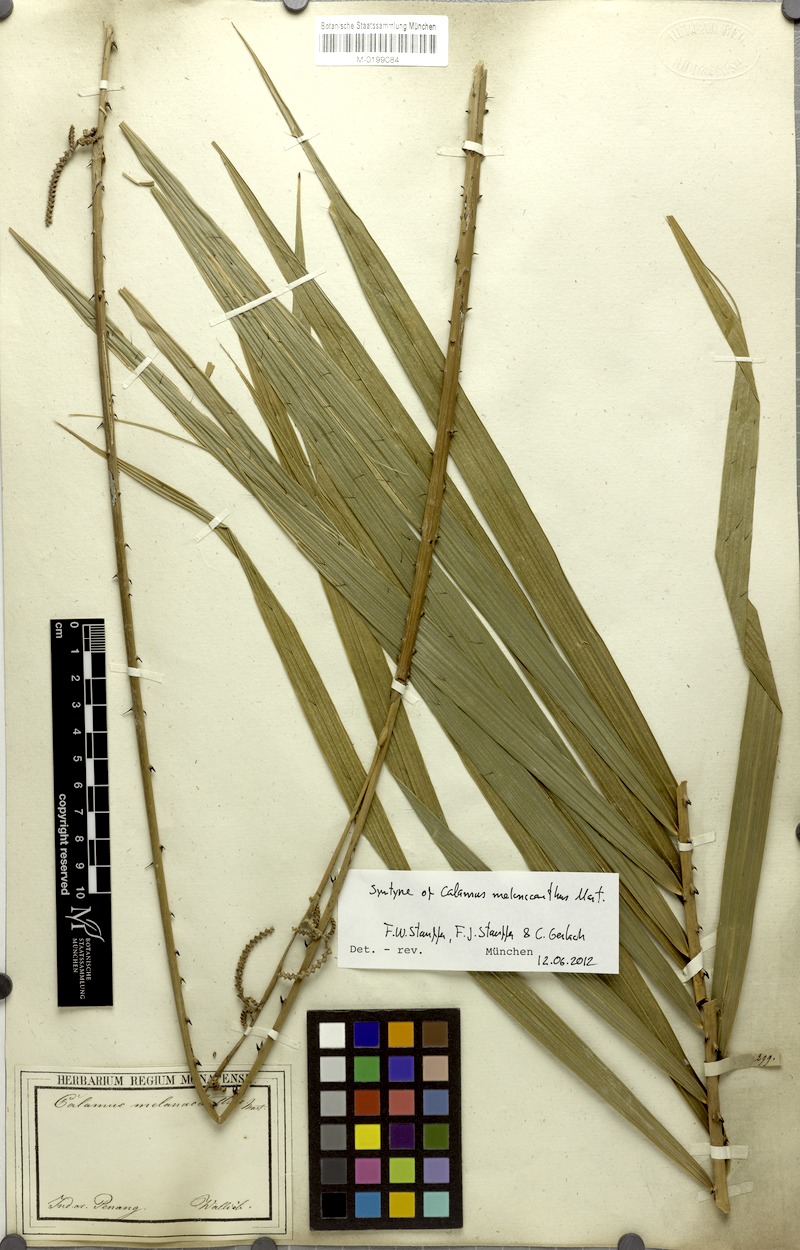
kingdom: Plantae
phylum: Tracheophyta
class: Liliopsida
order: Arecales
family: Arecaceae
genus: Calamus
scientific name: Calamus melanacanthus
